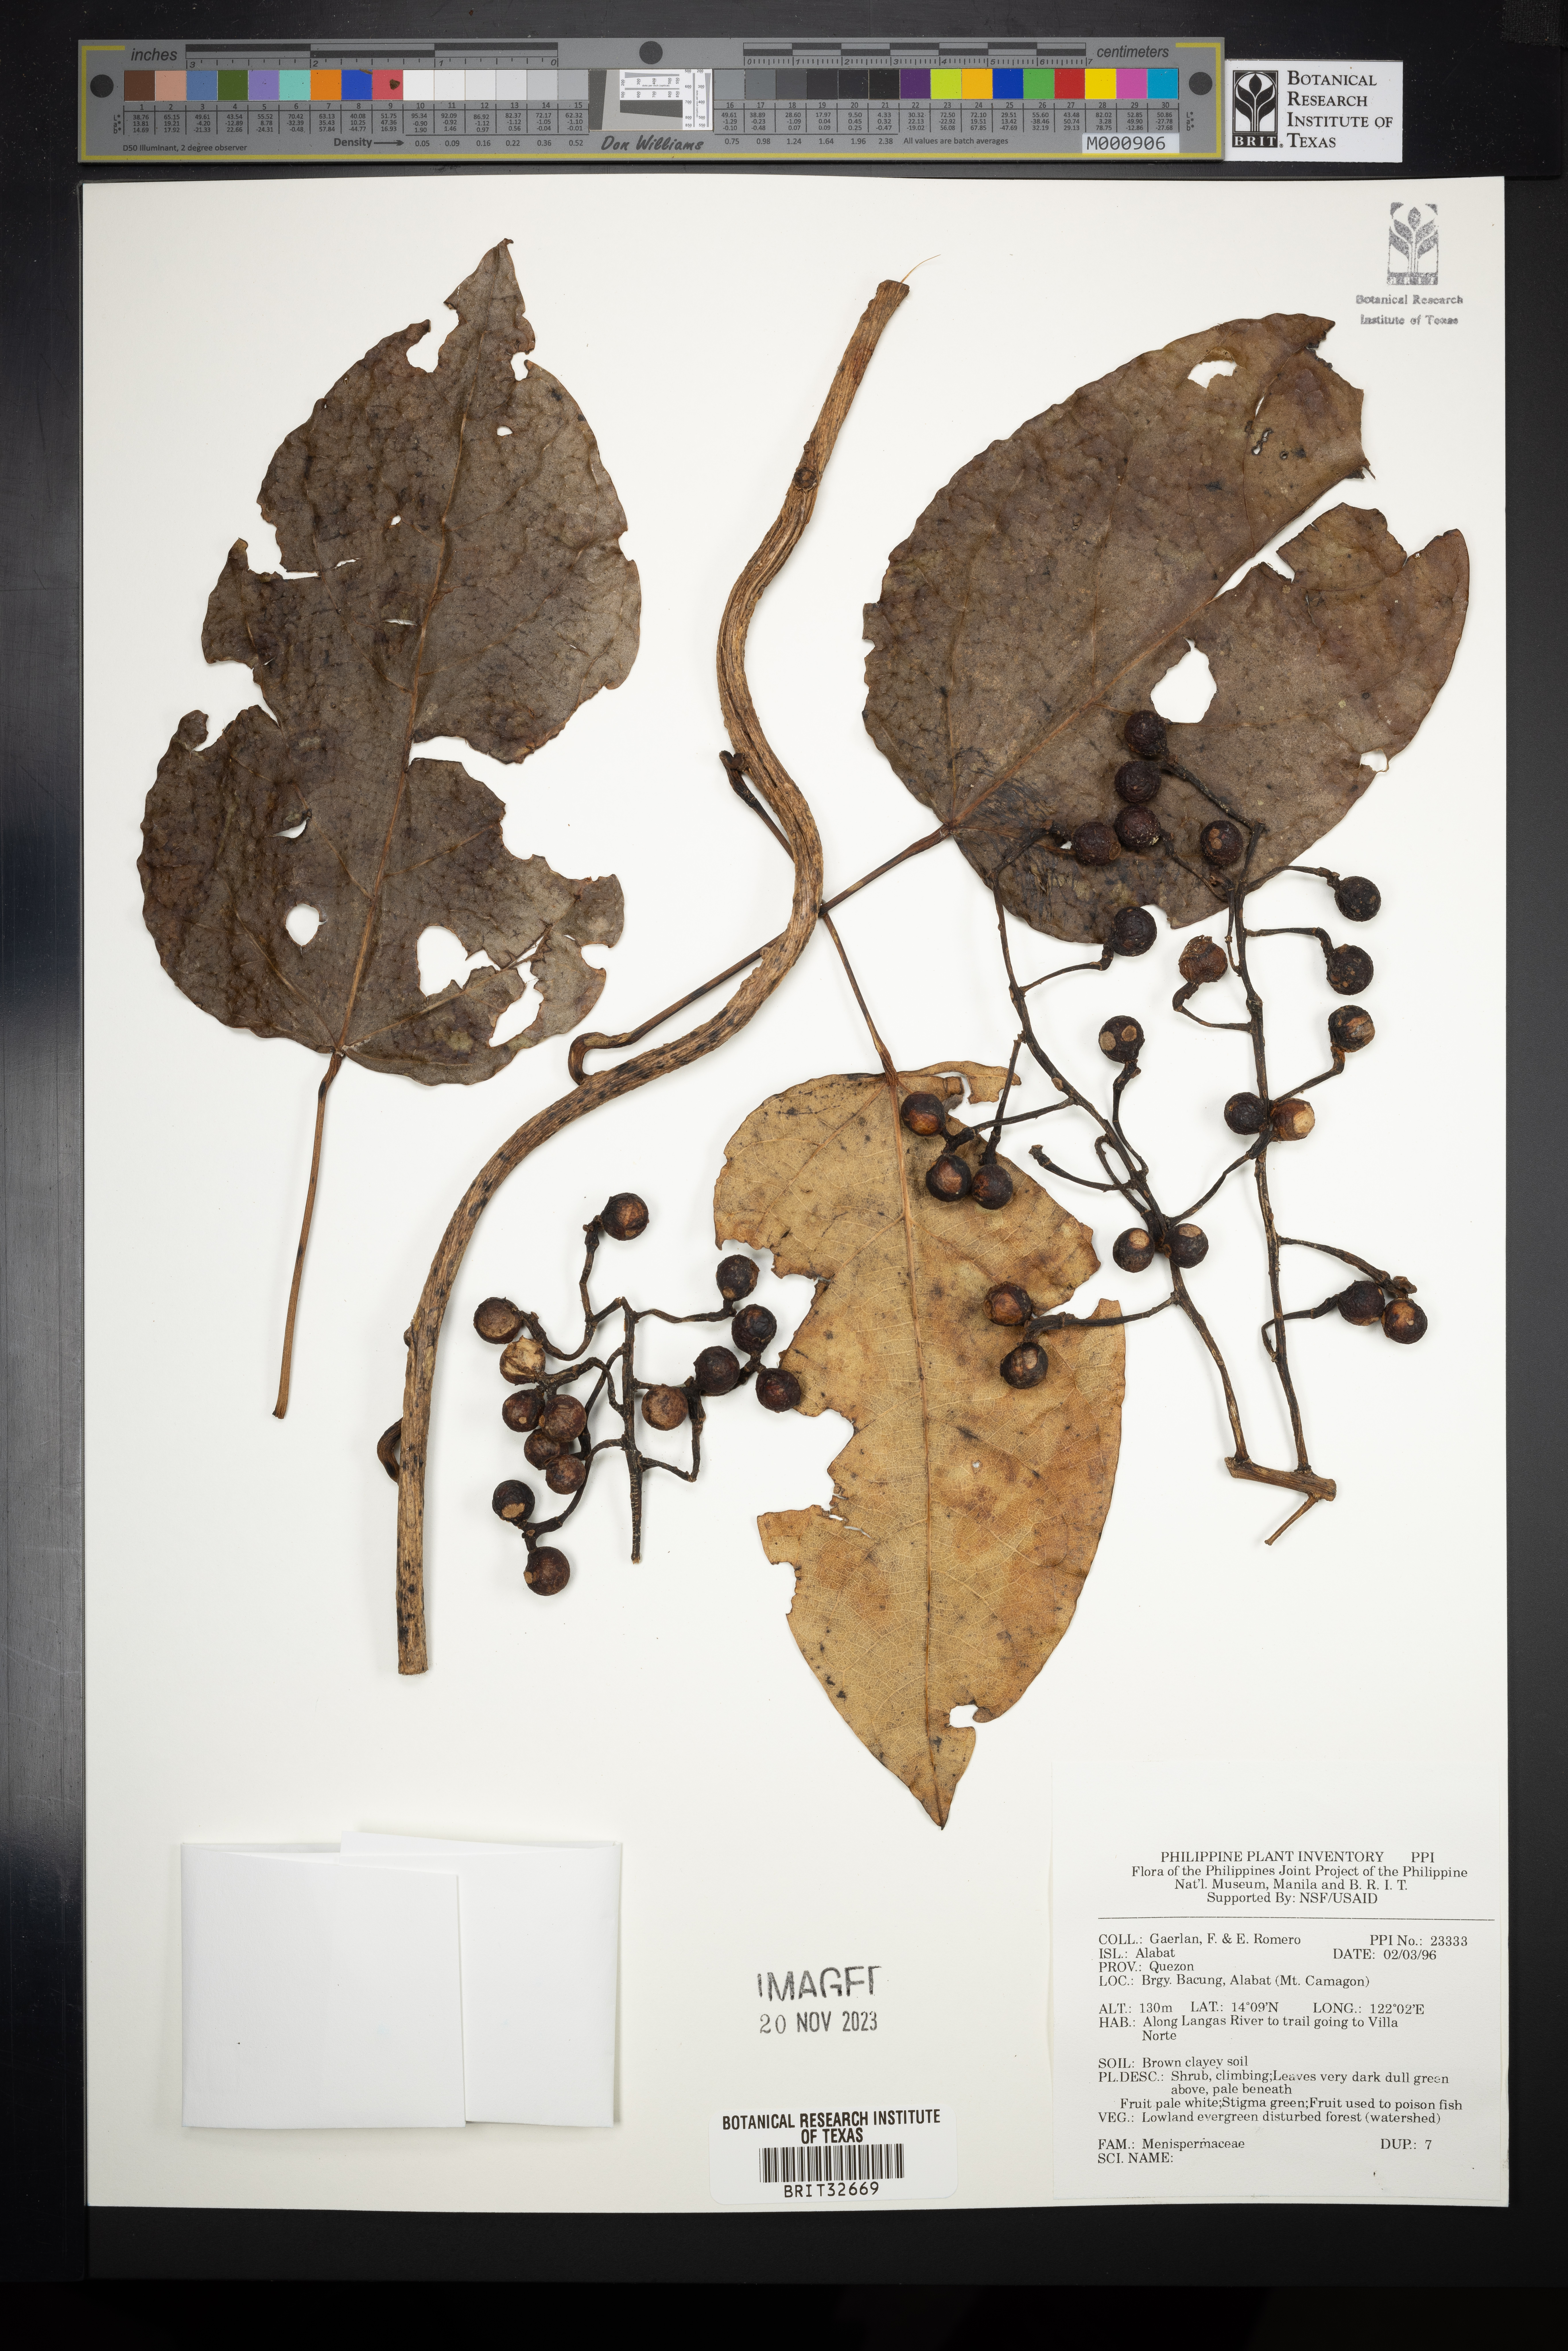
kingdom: Plantae
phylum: Tracheophyta
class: Magnoliopsida
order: Ranunculales
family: Menispermaceae
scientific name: Menispermaceae
